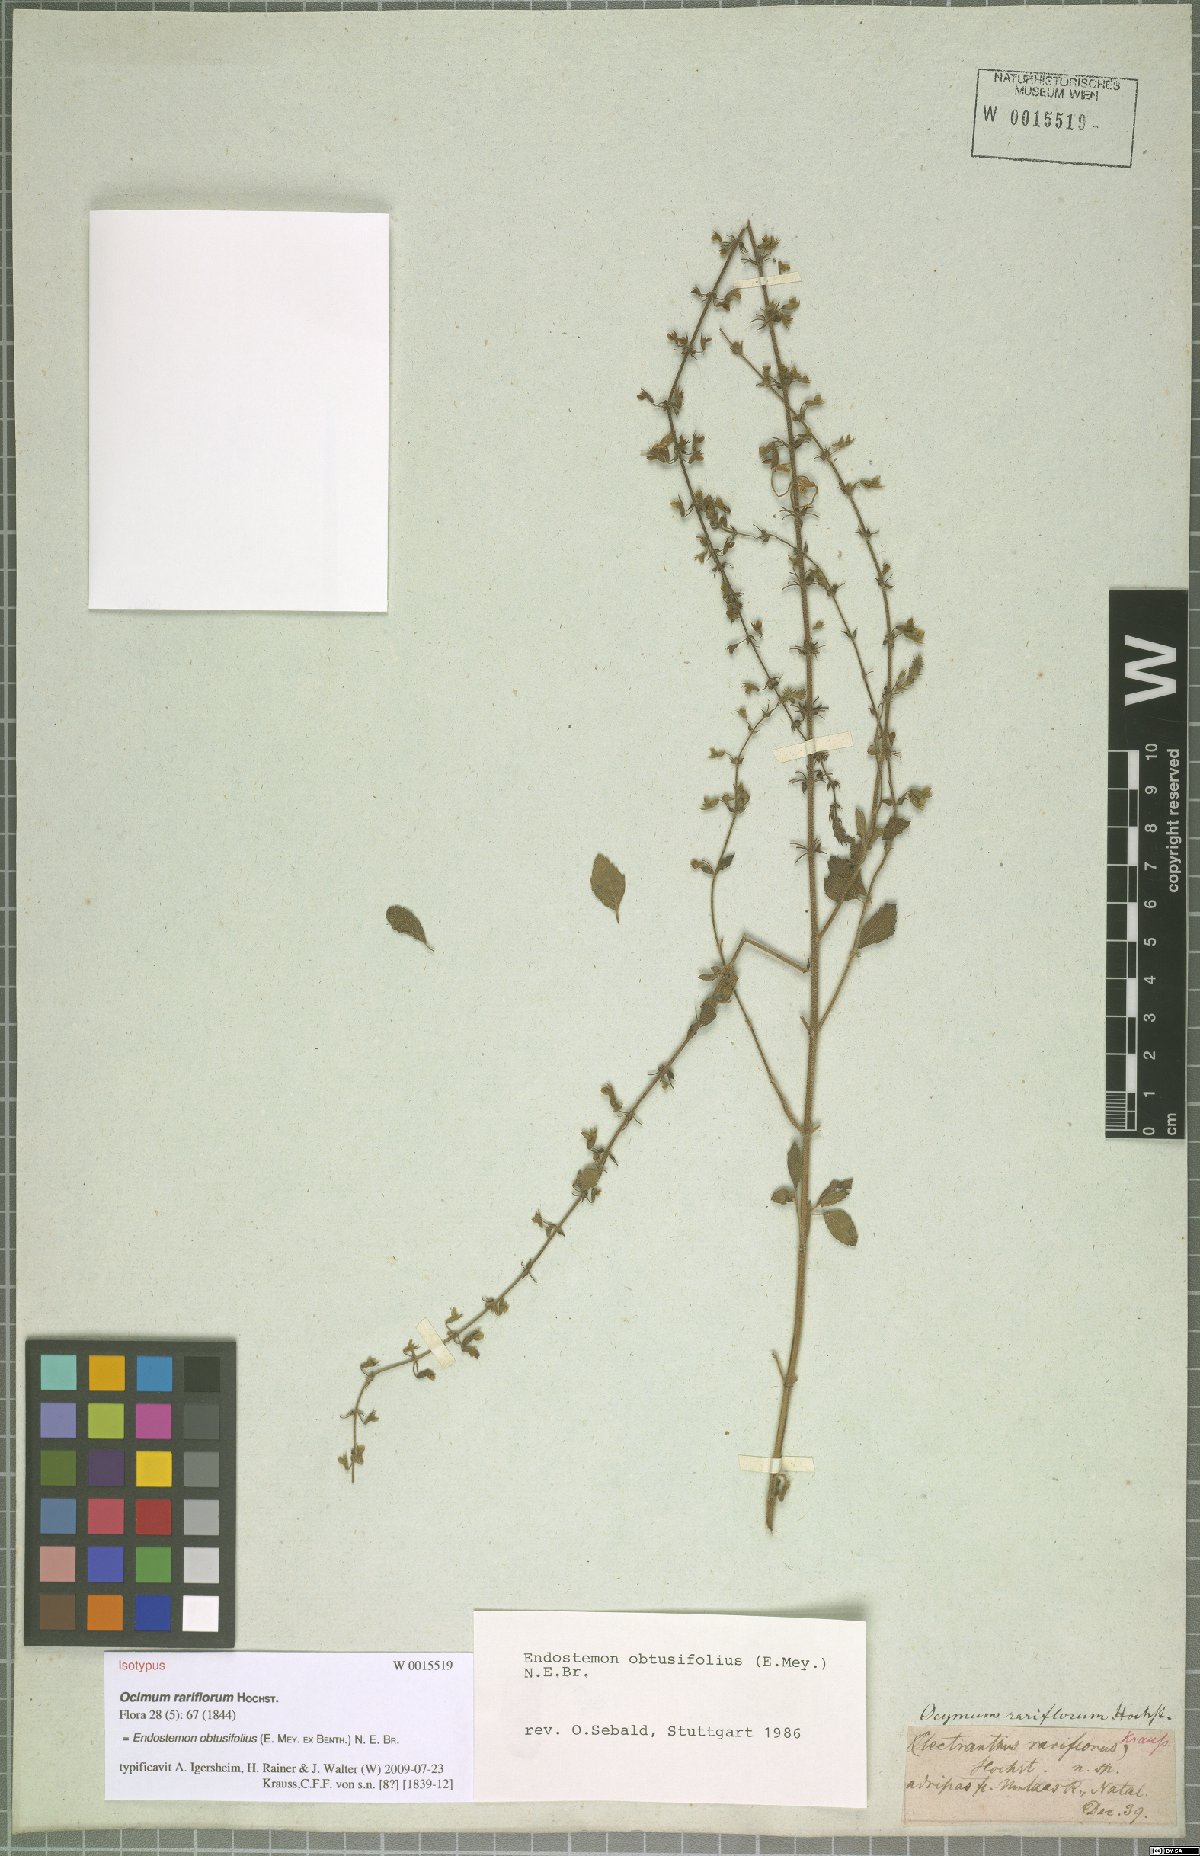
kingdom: Plantae
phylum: Tracheophyta
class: Magnoliopsida
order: Lamiales
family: Lamiaceae
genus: Endostemon
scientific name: Endostemon obtusifolius
